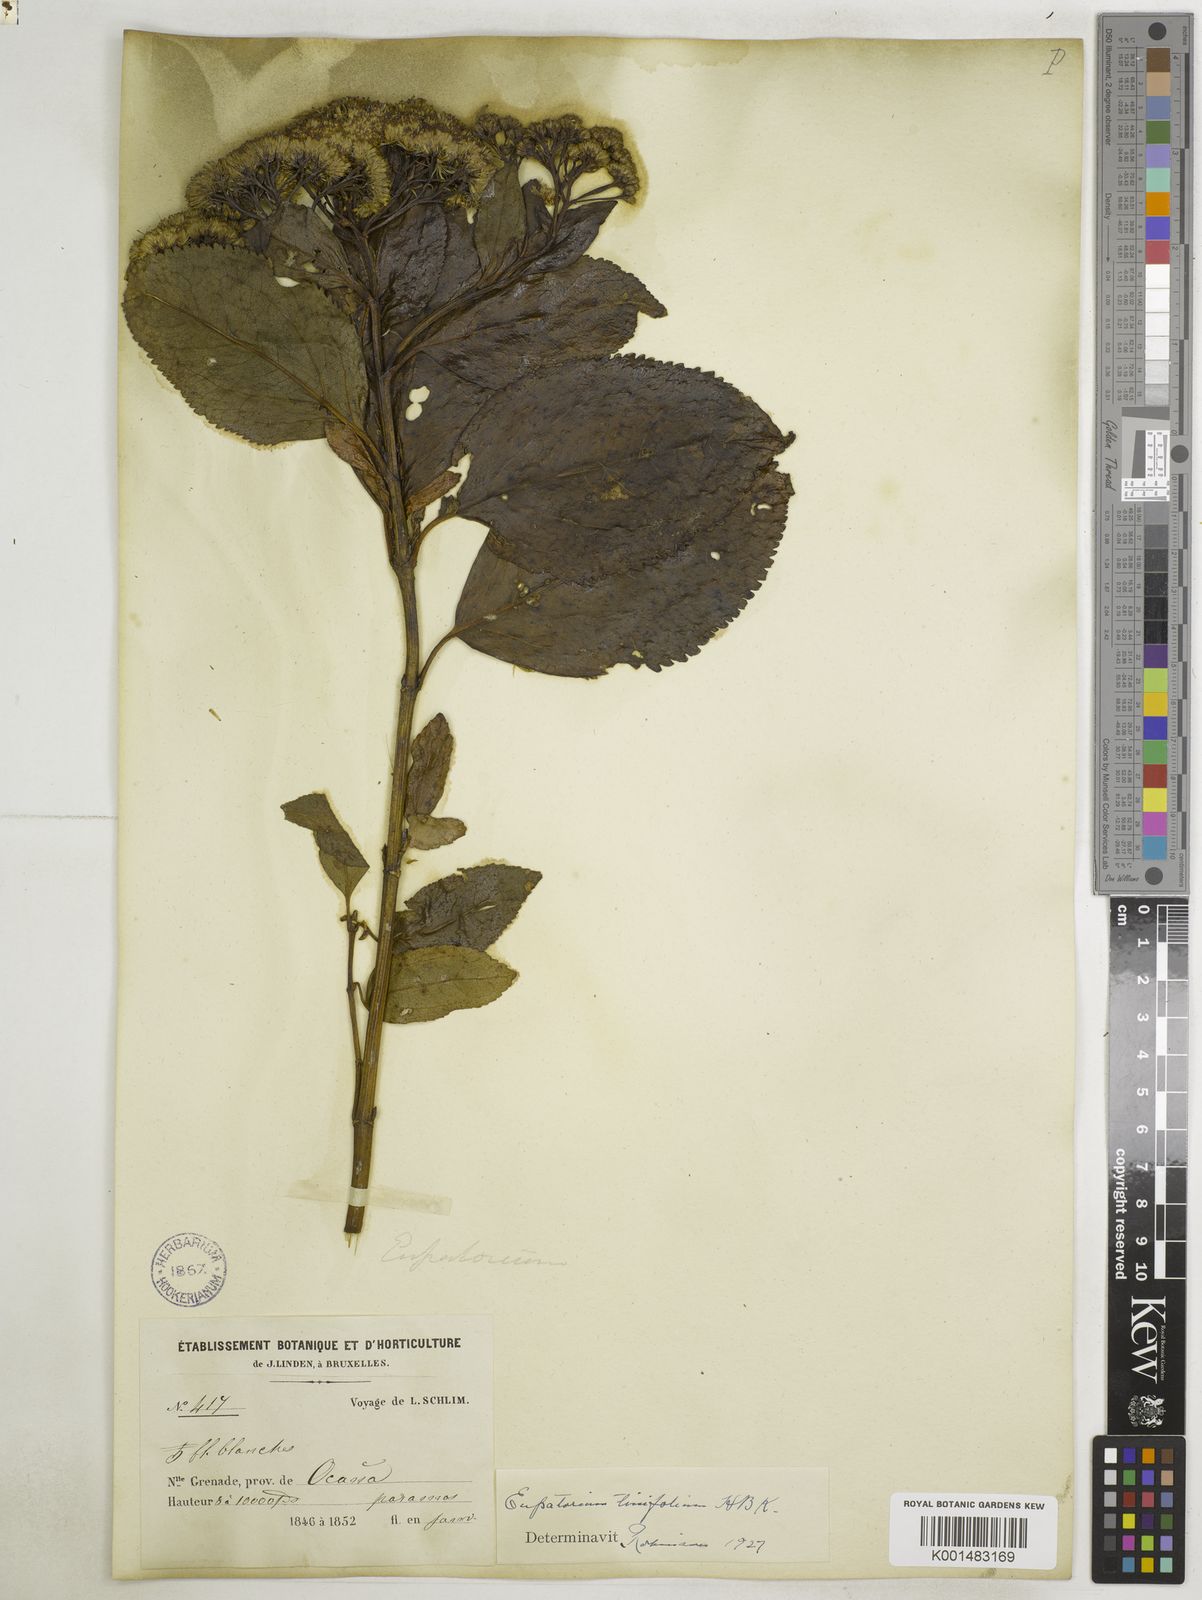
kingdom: Plantae
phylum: Tracheophyta
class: Magnoliopsida
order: Asterales
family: Asteraceae
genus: Ageratina
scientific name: Ageratina tinifolia
